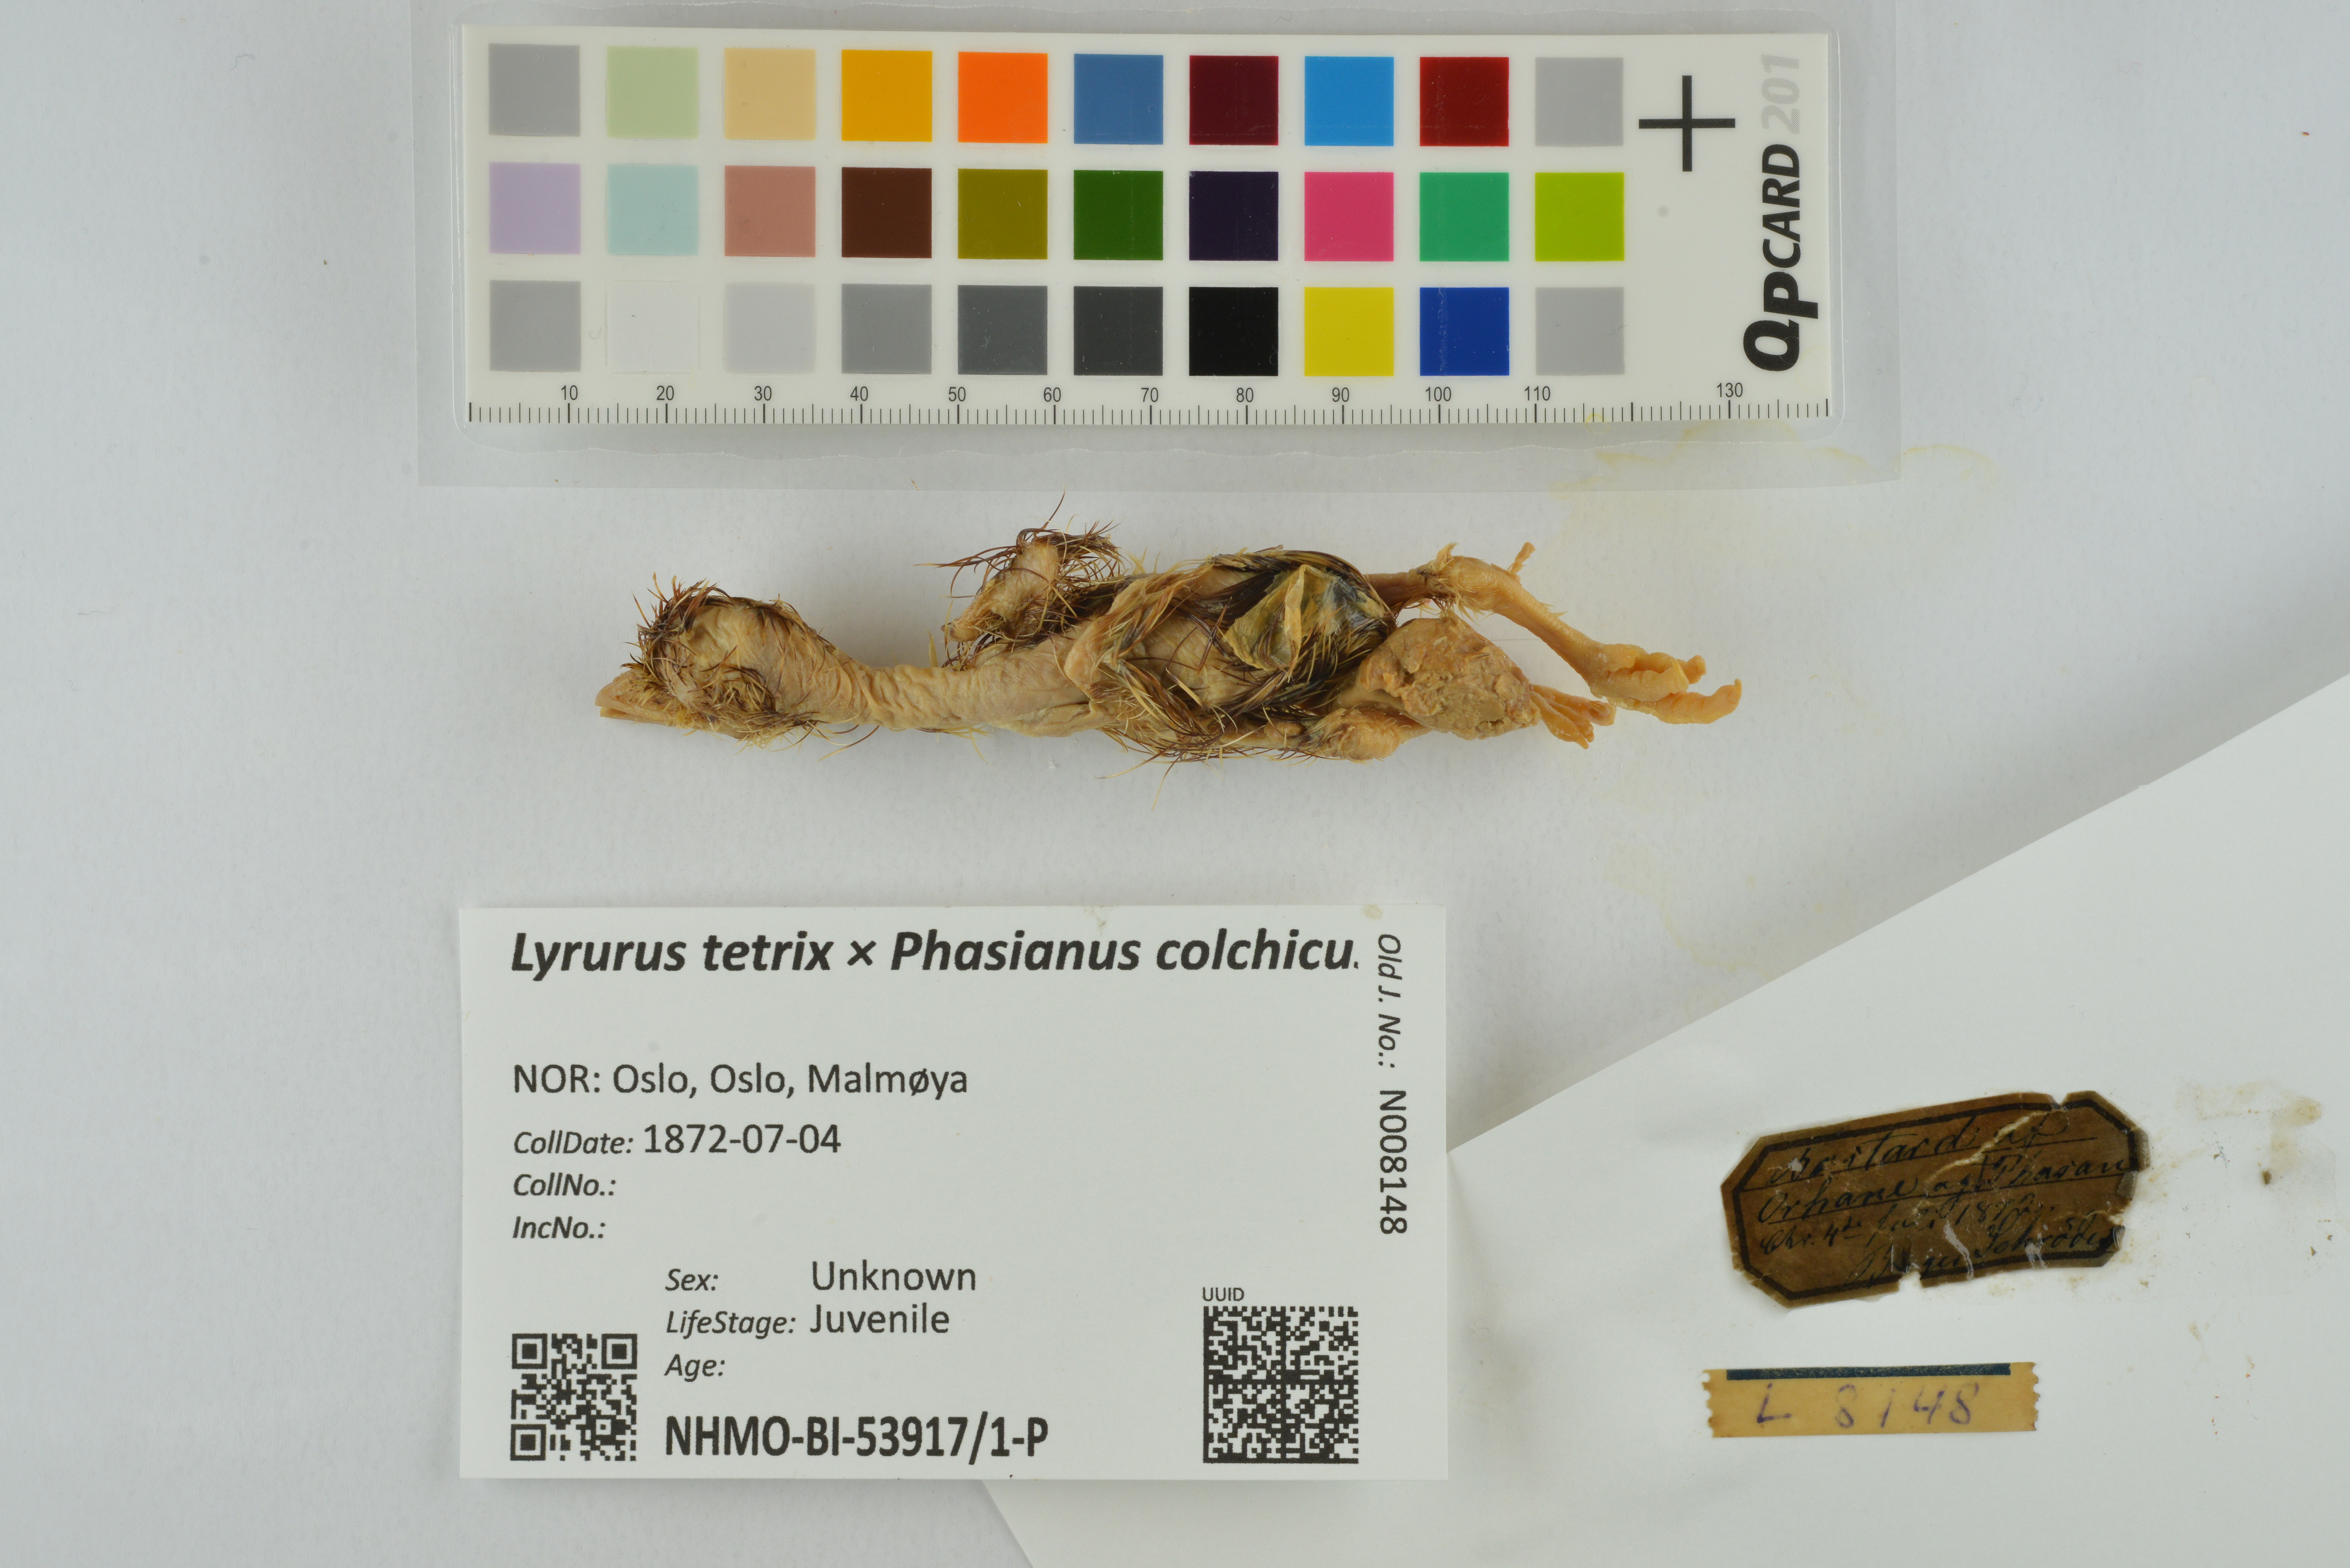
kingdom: Animalia
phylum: Chordata
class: Aves
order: Galliformes
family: Phasianidae
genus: Lyrurus
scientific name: Lyrurus
